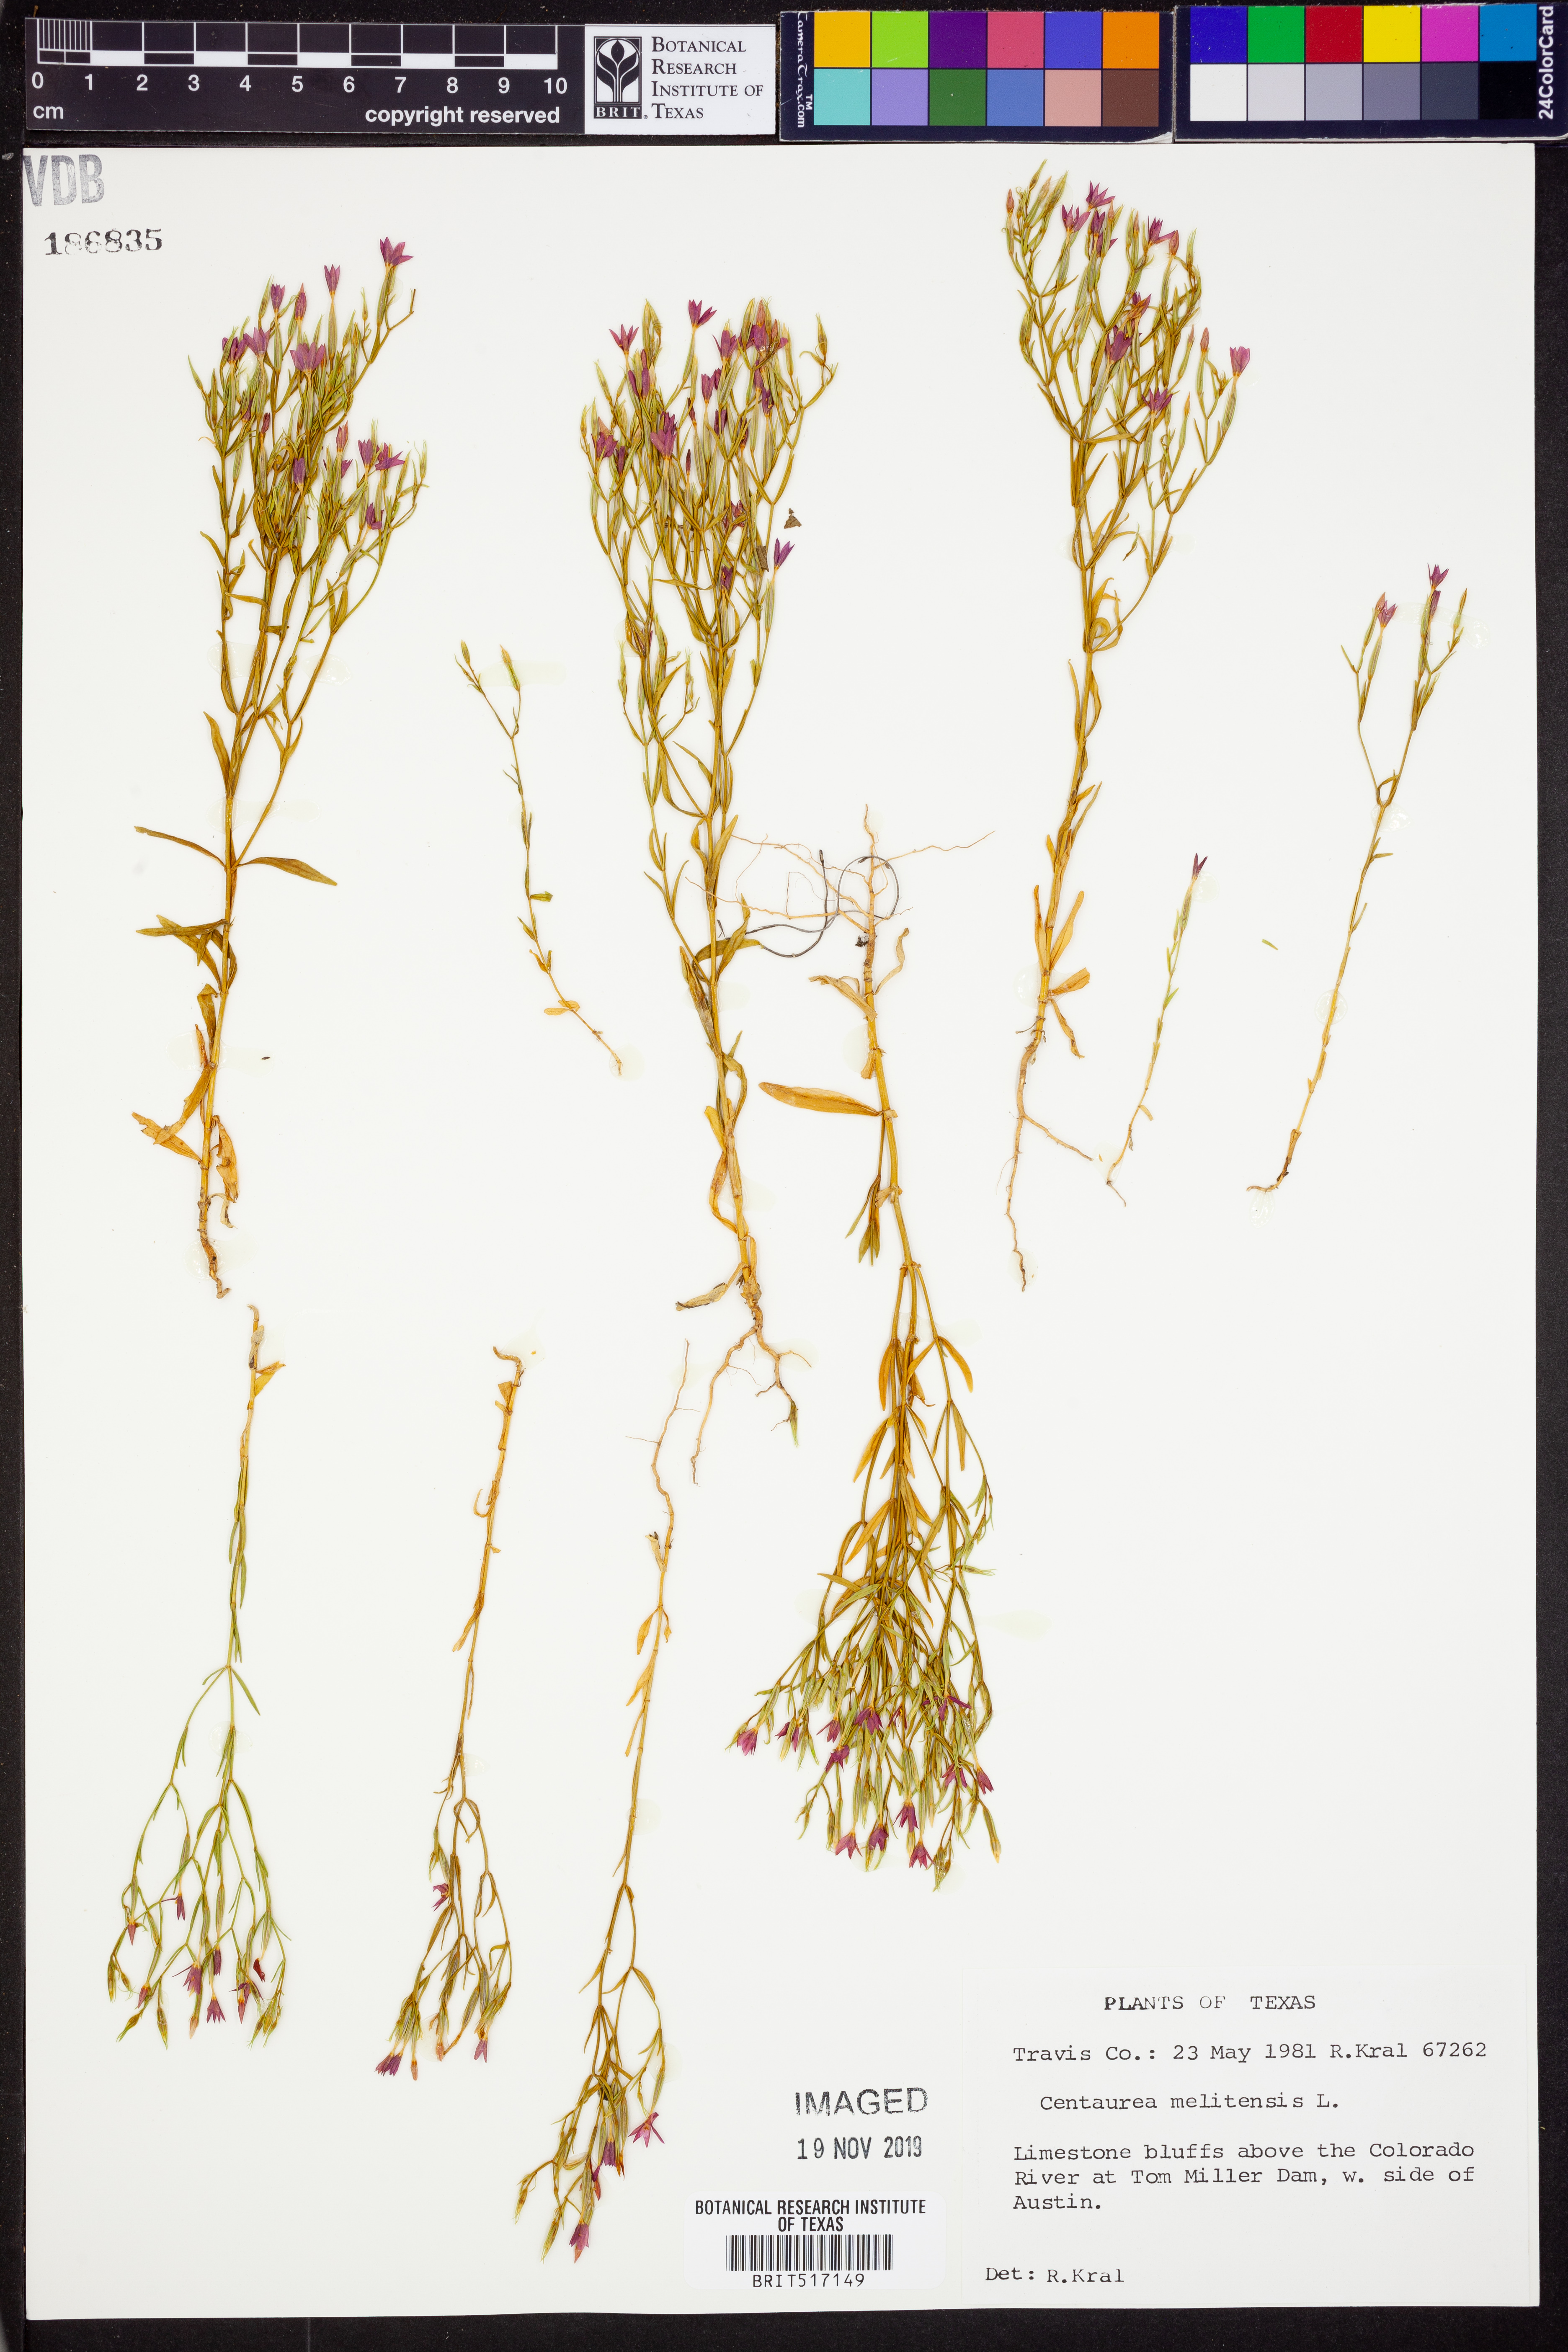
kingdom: Plantae
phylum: Tracheophyta
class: Magnoliopsida
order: Gentianales
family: Gentianaceae
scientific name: Gentianaceae
